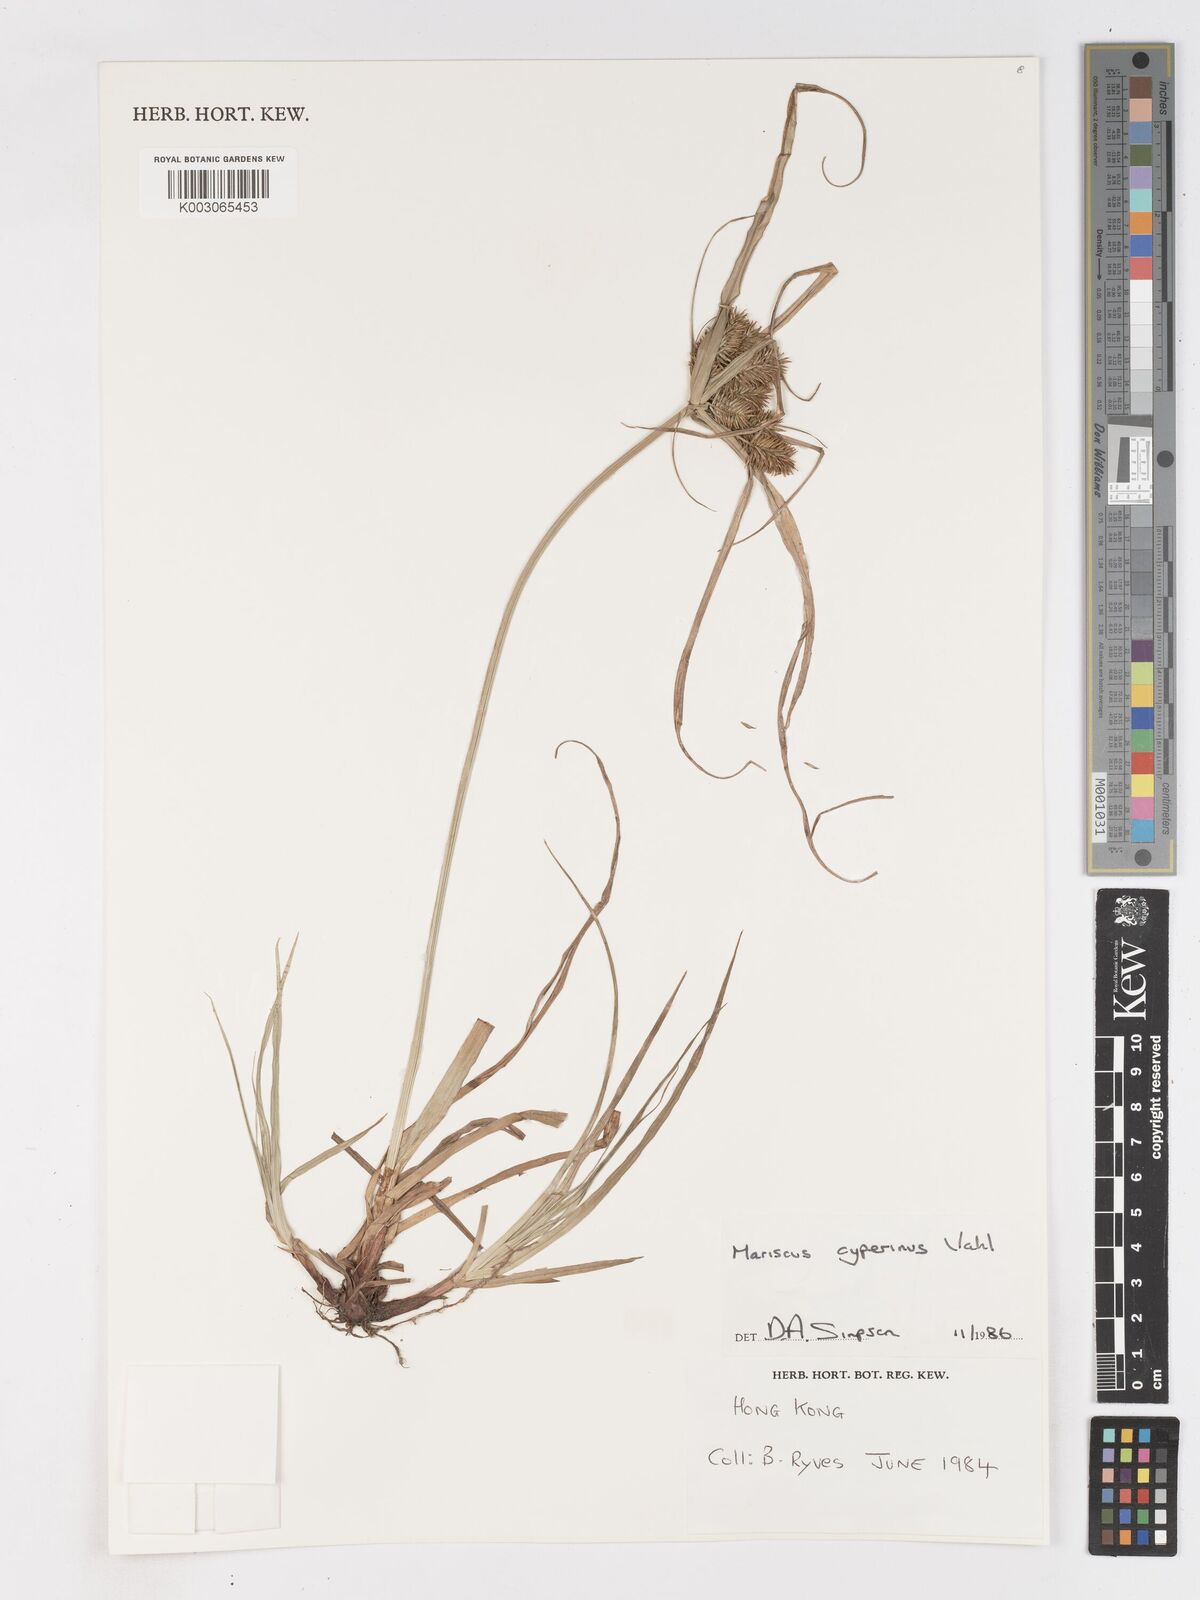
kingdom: Plantae
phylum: Tracheophyta
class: Liliopsida
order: Poales
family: Cyperaceae
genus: Cyperus
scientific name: Cyperus cyperinus
